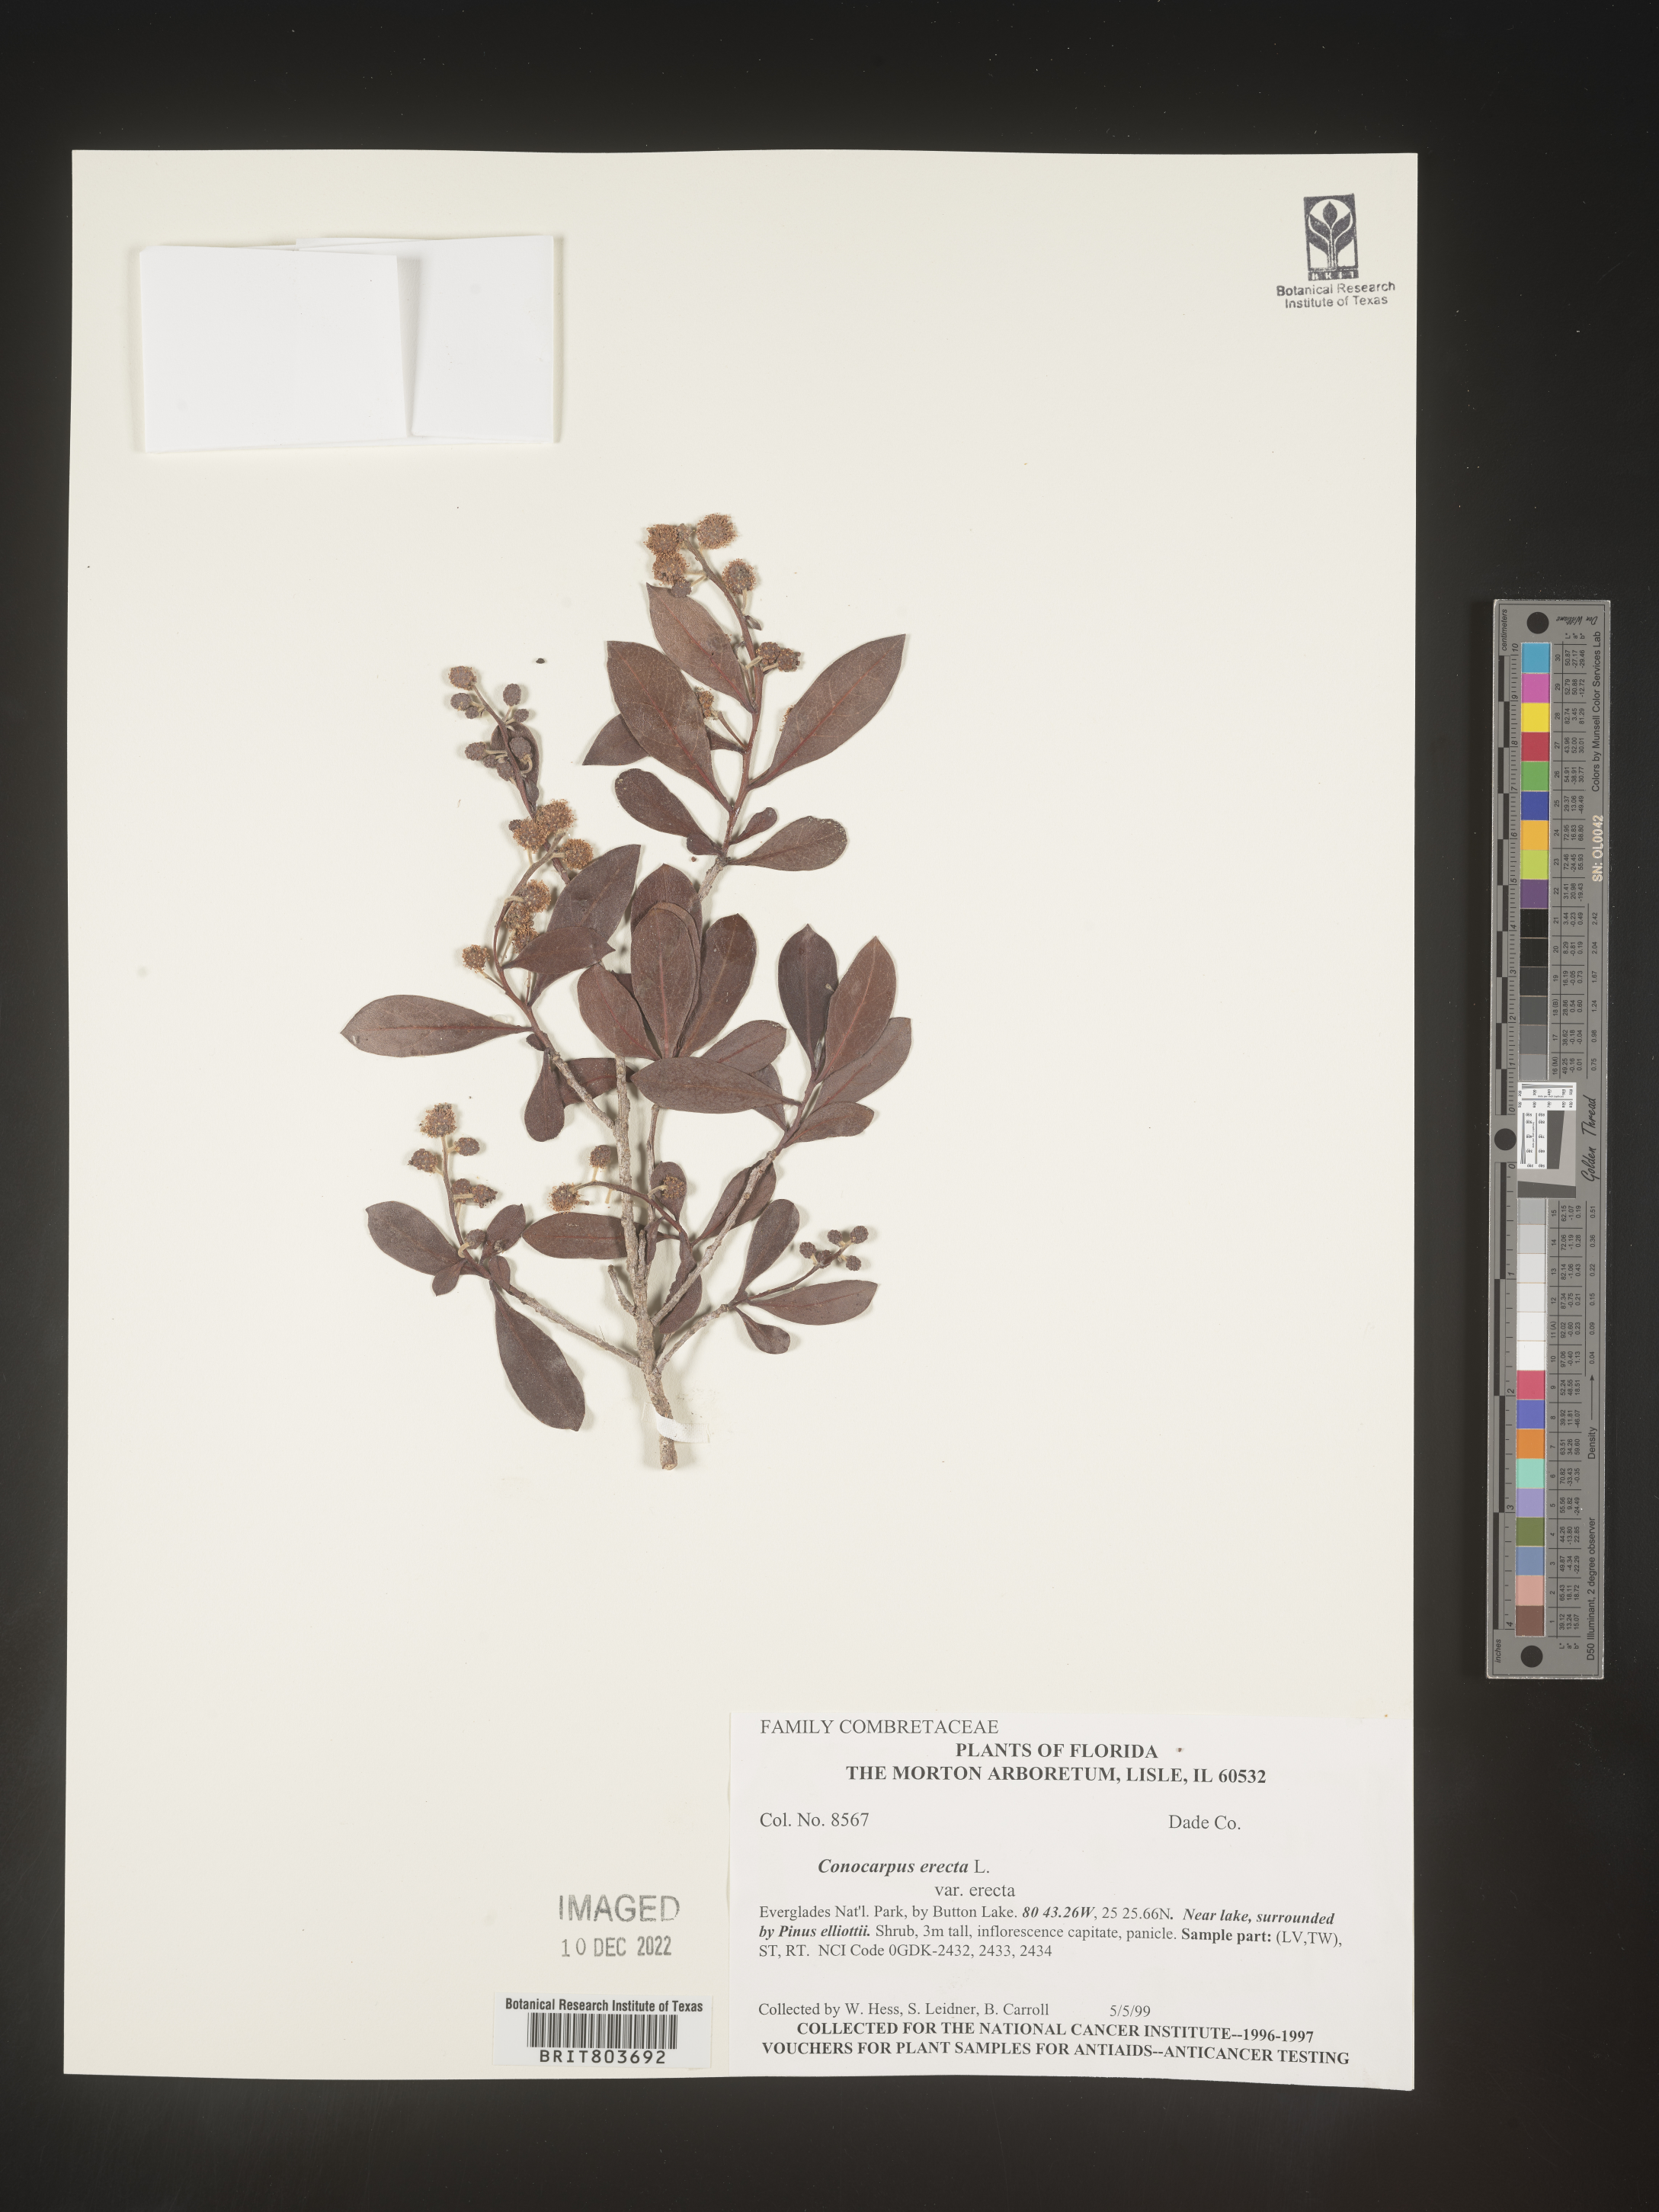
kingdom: Plantae
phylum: Tracheophyta
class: Magnoliopsida
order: Myrtales
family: Combretaceae
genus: Conocarpus
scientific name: Conocarpus erectus
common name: Button mangrove
